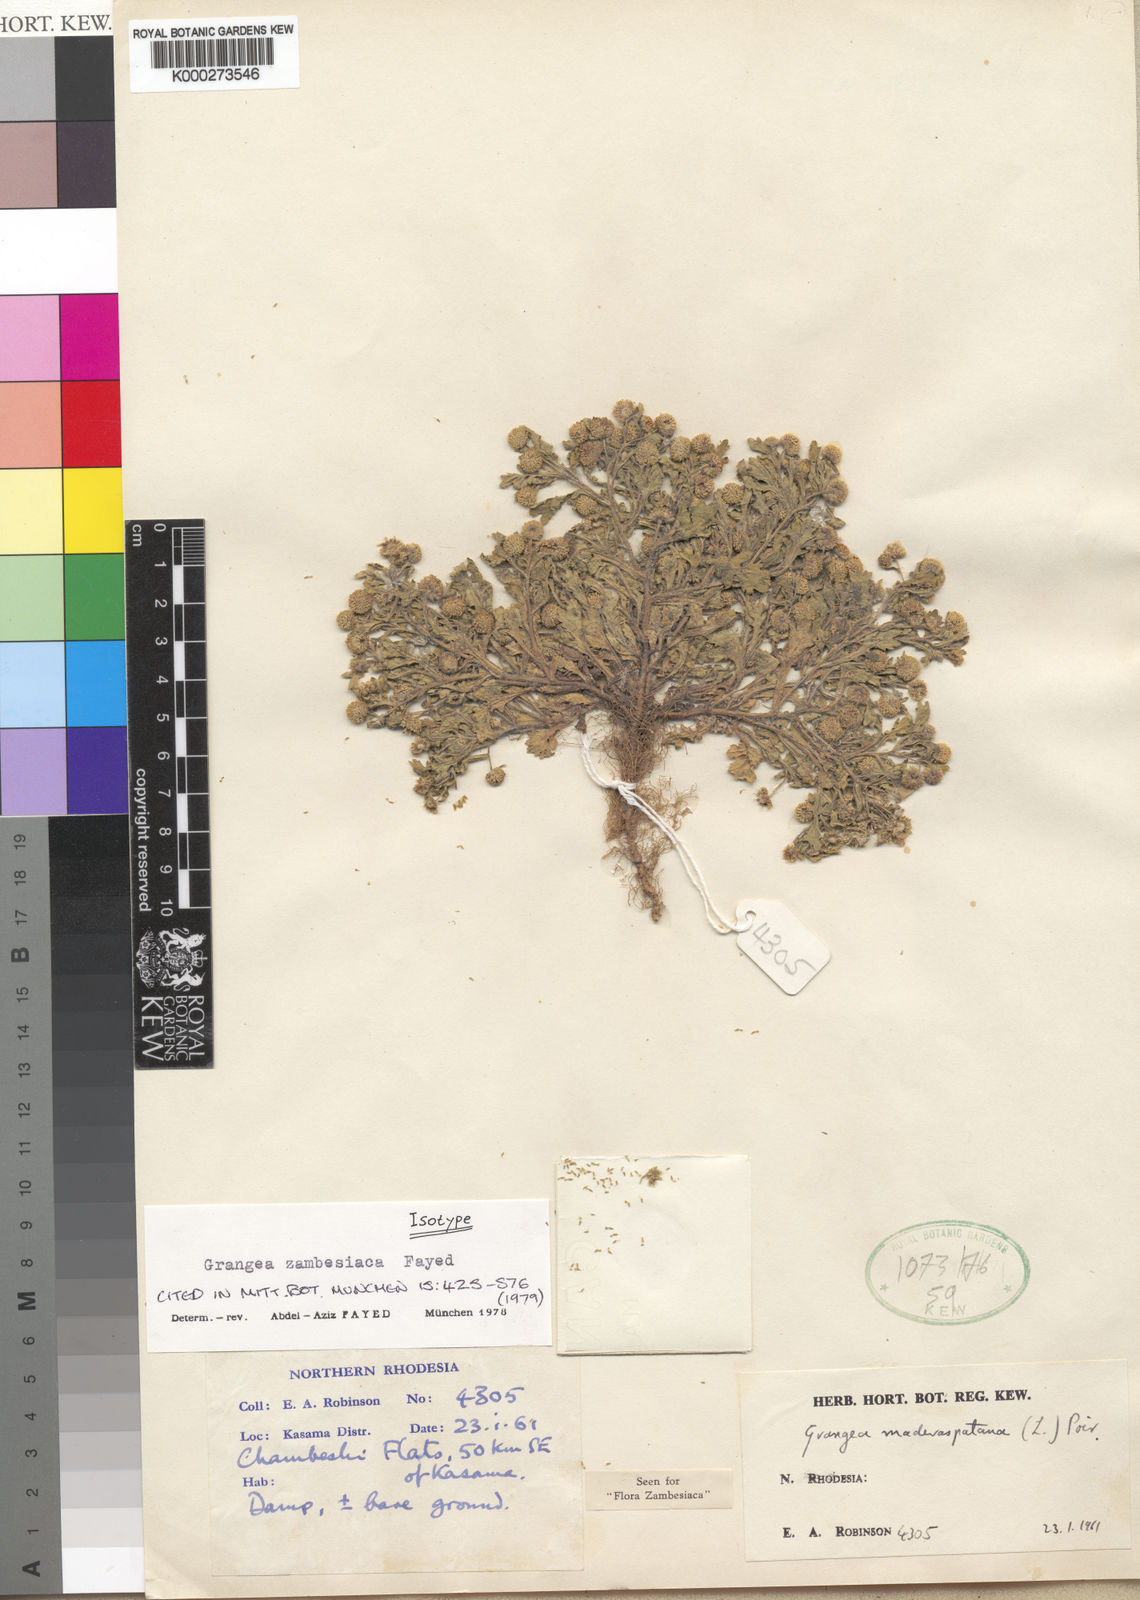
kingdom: Plantae
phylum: Tracheophyta
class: Magnoliopsida
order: Asterales
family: Asteraceae
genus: Grangea
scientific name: Grangea zambesiaca
